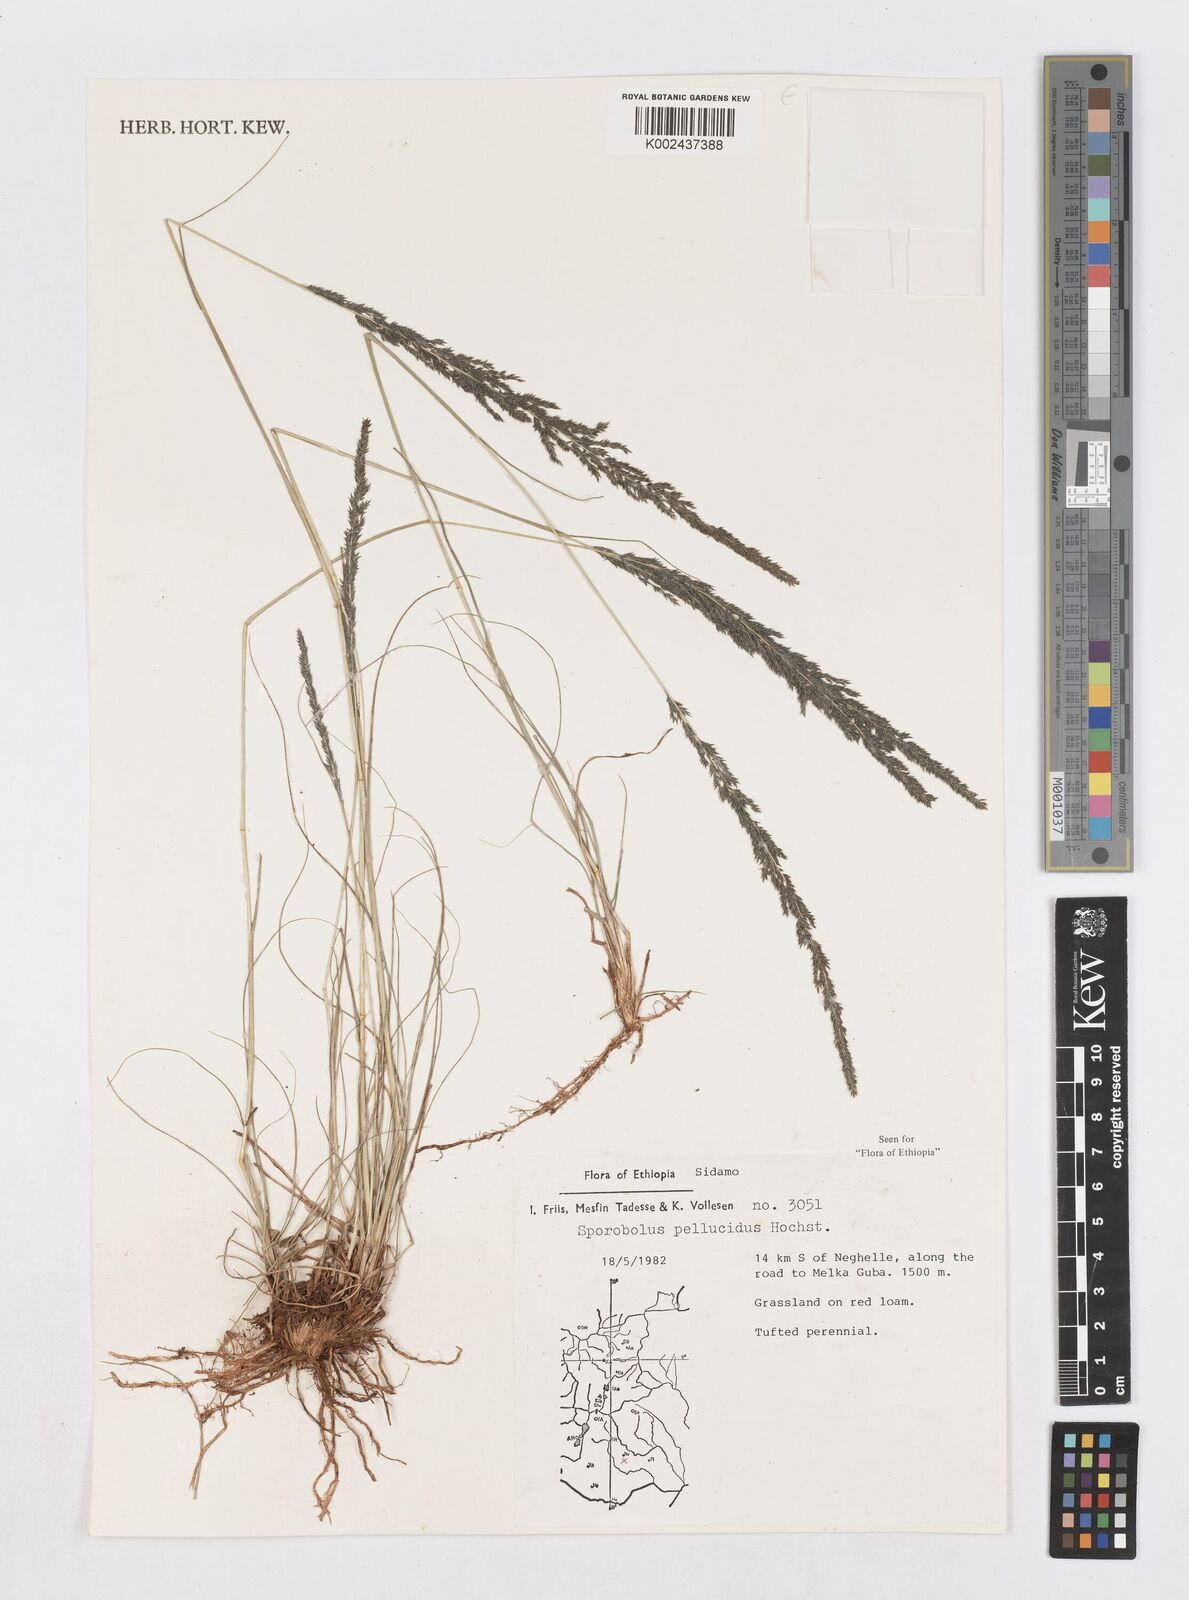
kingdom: Plantae
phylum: Tracheophyta
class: Liliopsida
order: Poales
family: Poaceae
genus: Sporobolus
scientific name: Sporobolus pellucidus
